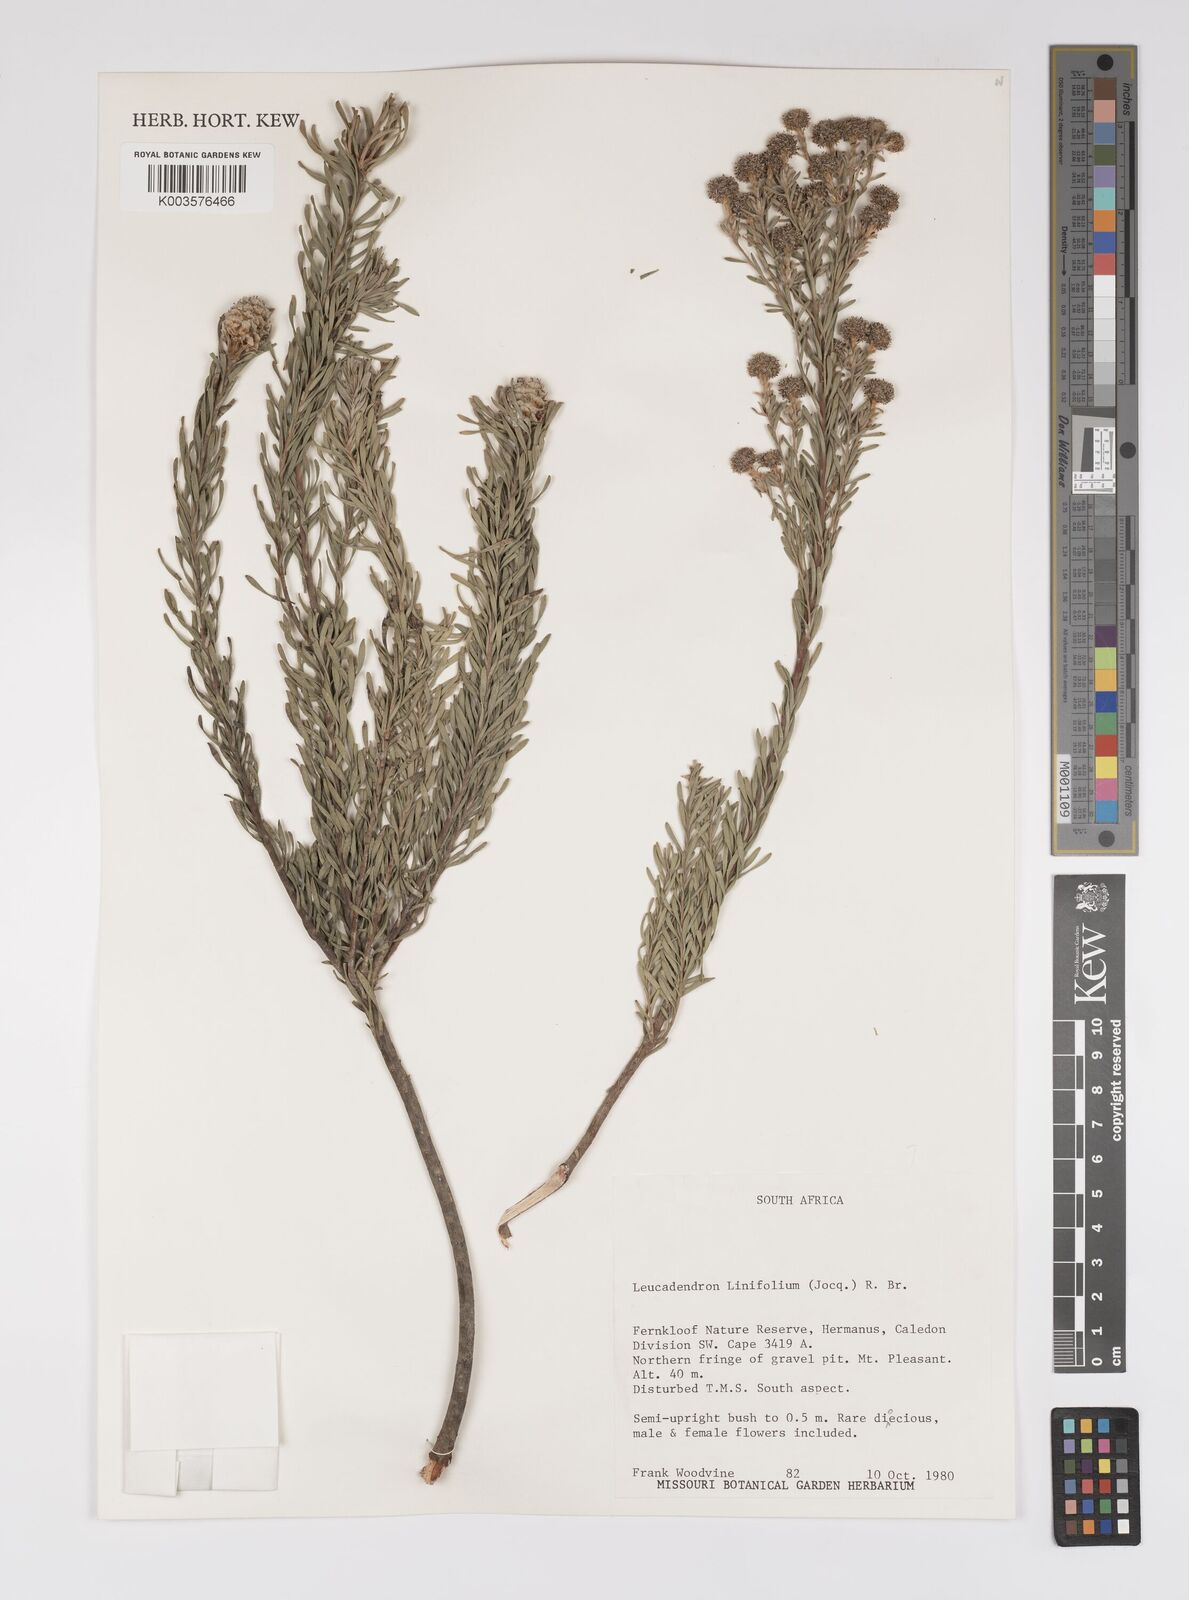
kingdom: Plantae
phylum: Tracheophyta
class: Magnoliopsida
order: Proteales
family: Proteaceae
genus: Leucadendron
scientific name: Leucadendron linifolium
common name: Line-leaf conebush
